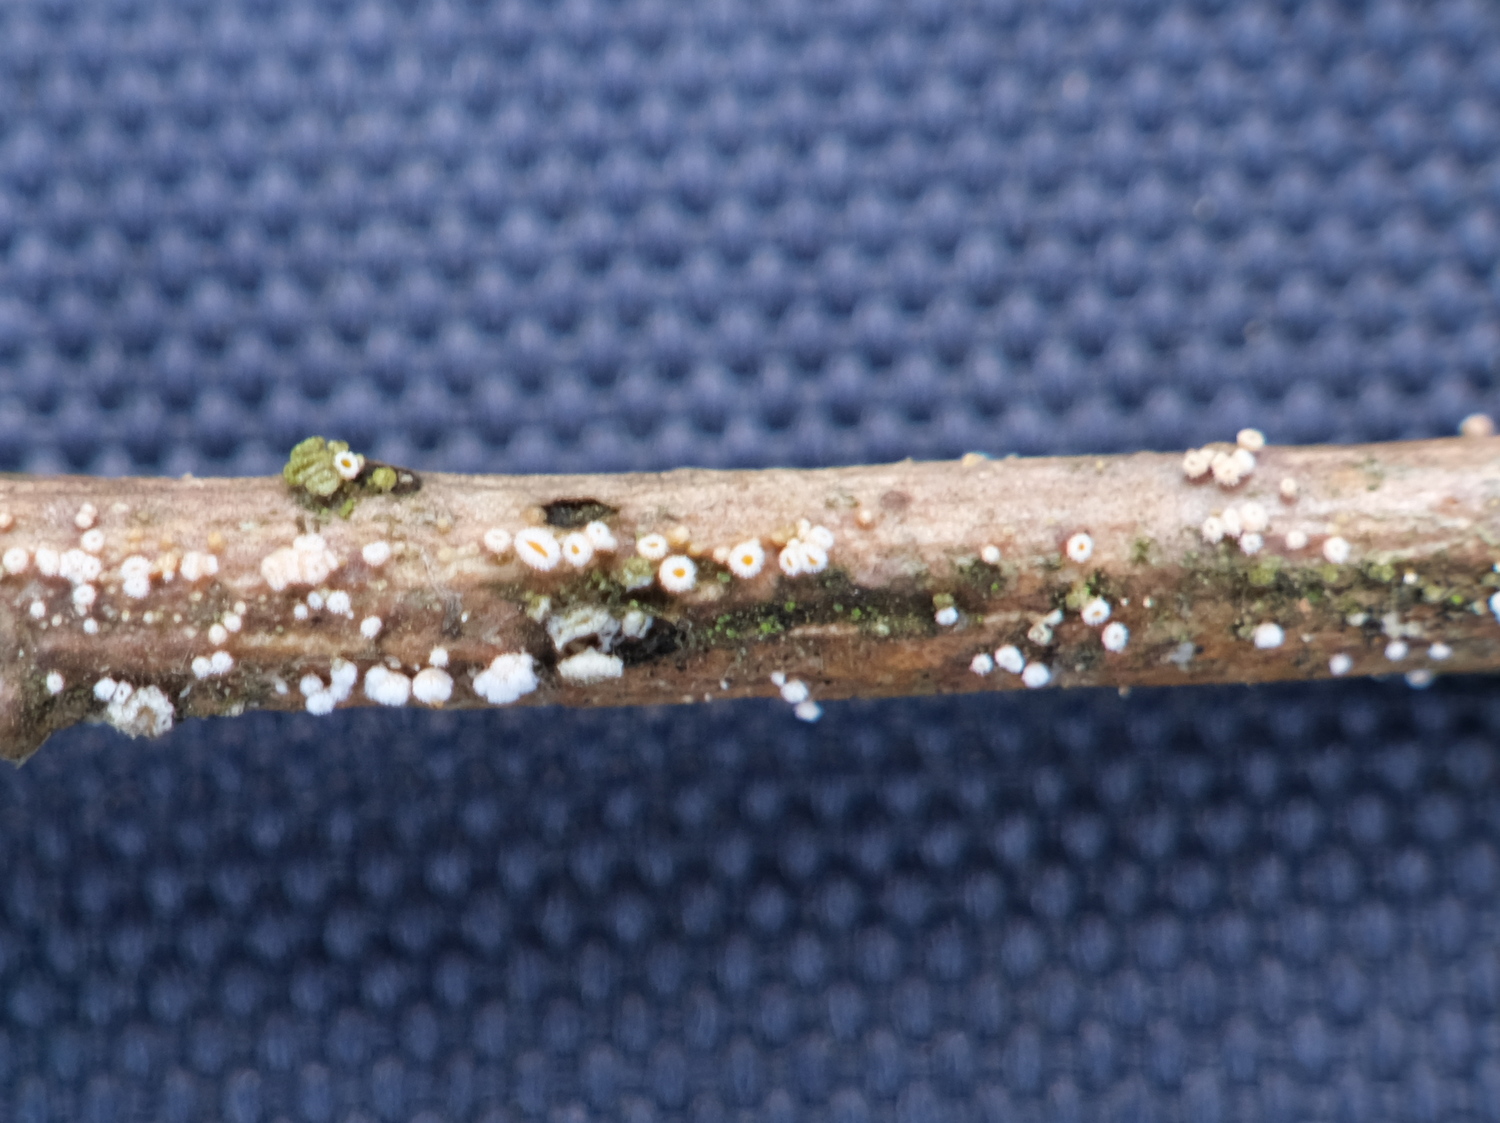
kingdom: Fungi
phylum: Ascomycota
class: Leotiomycetes
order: Helotiales
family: Lachnaceae
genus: Capitotricha
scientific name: Capitotricha bicolor
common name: prægtig frynseskive
